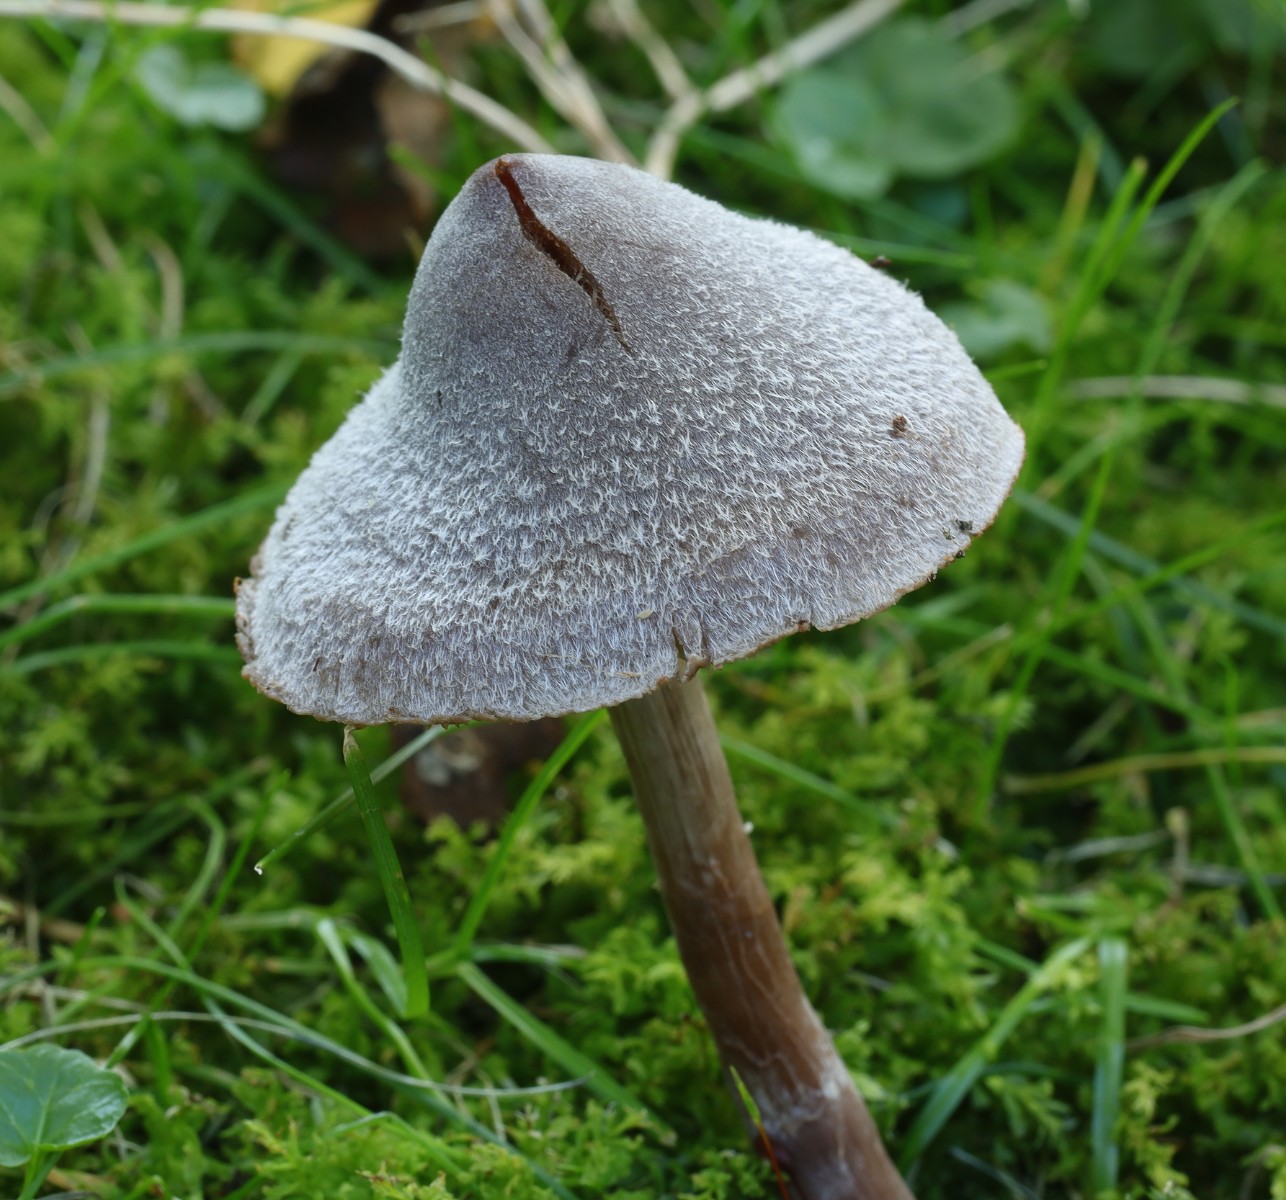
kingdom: Fungi
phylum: Basidiomycota
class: Agaricomycetes
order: Agaricales
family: Cortinariaceae
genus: Cortinarius
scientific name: Cortinarius
